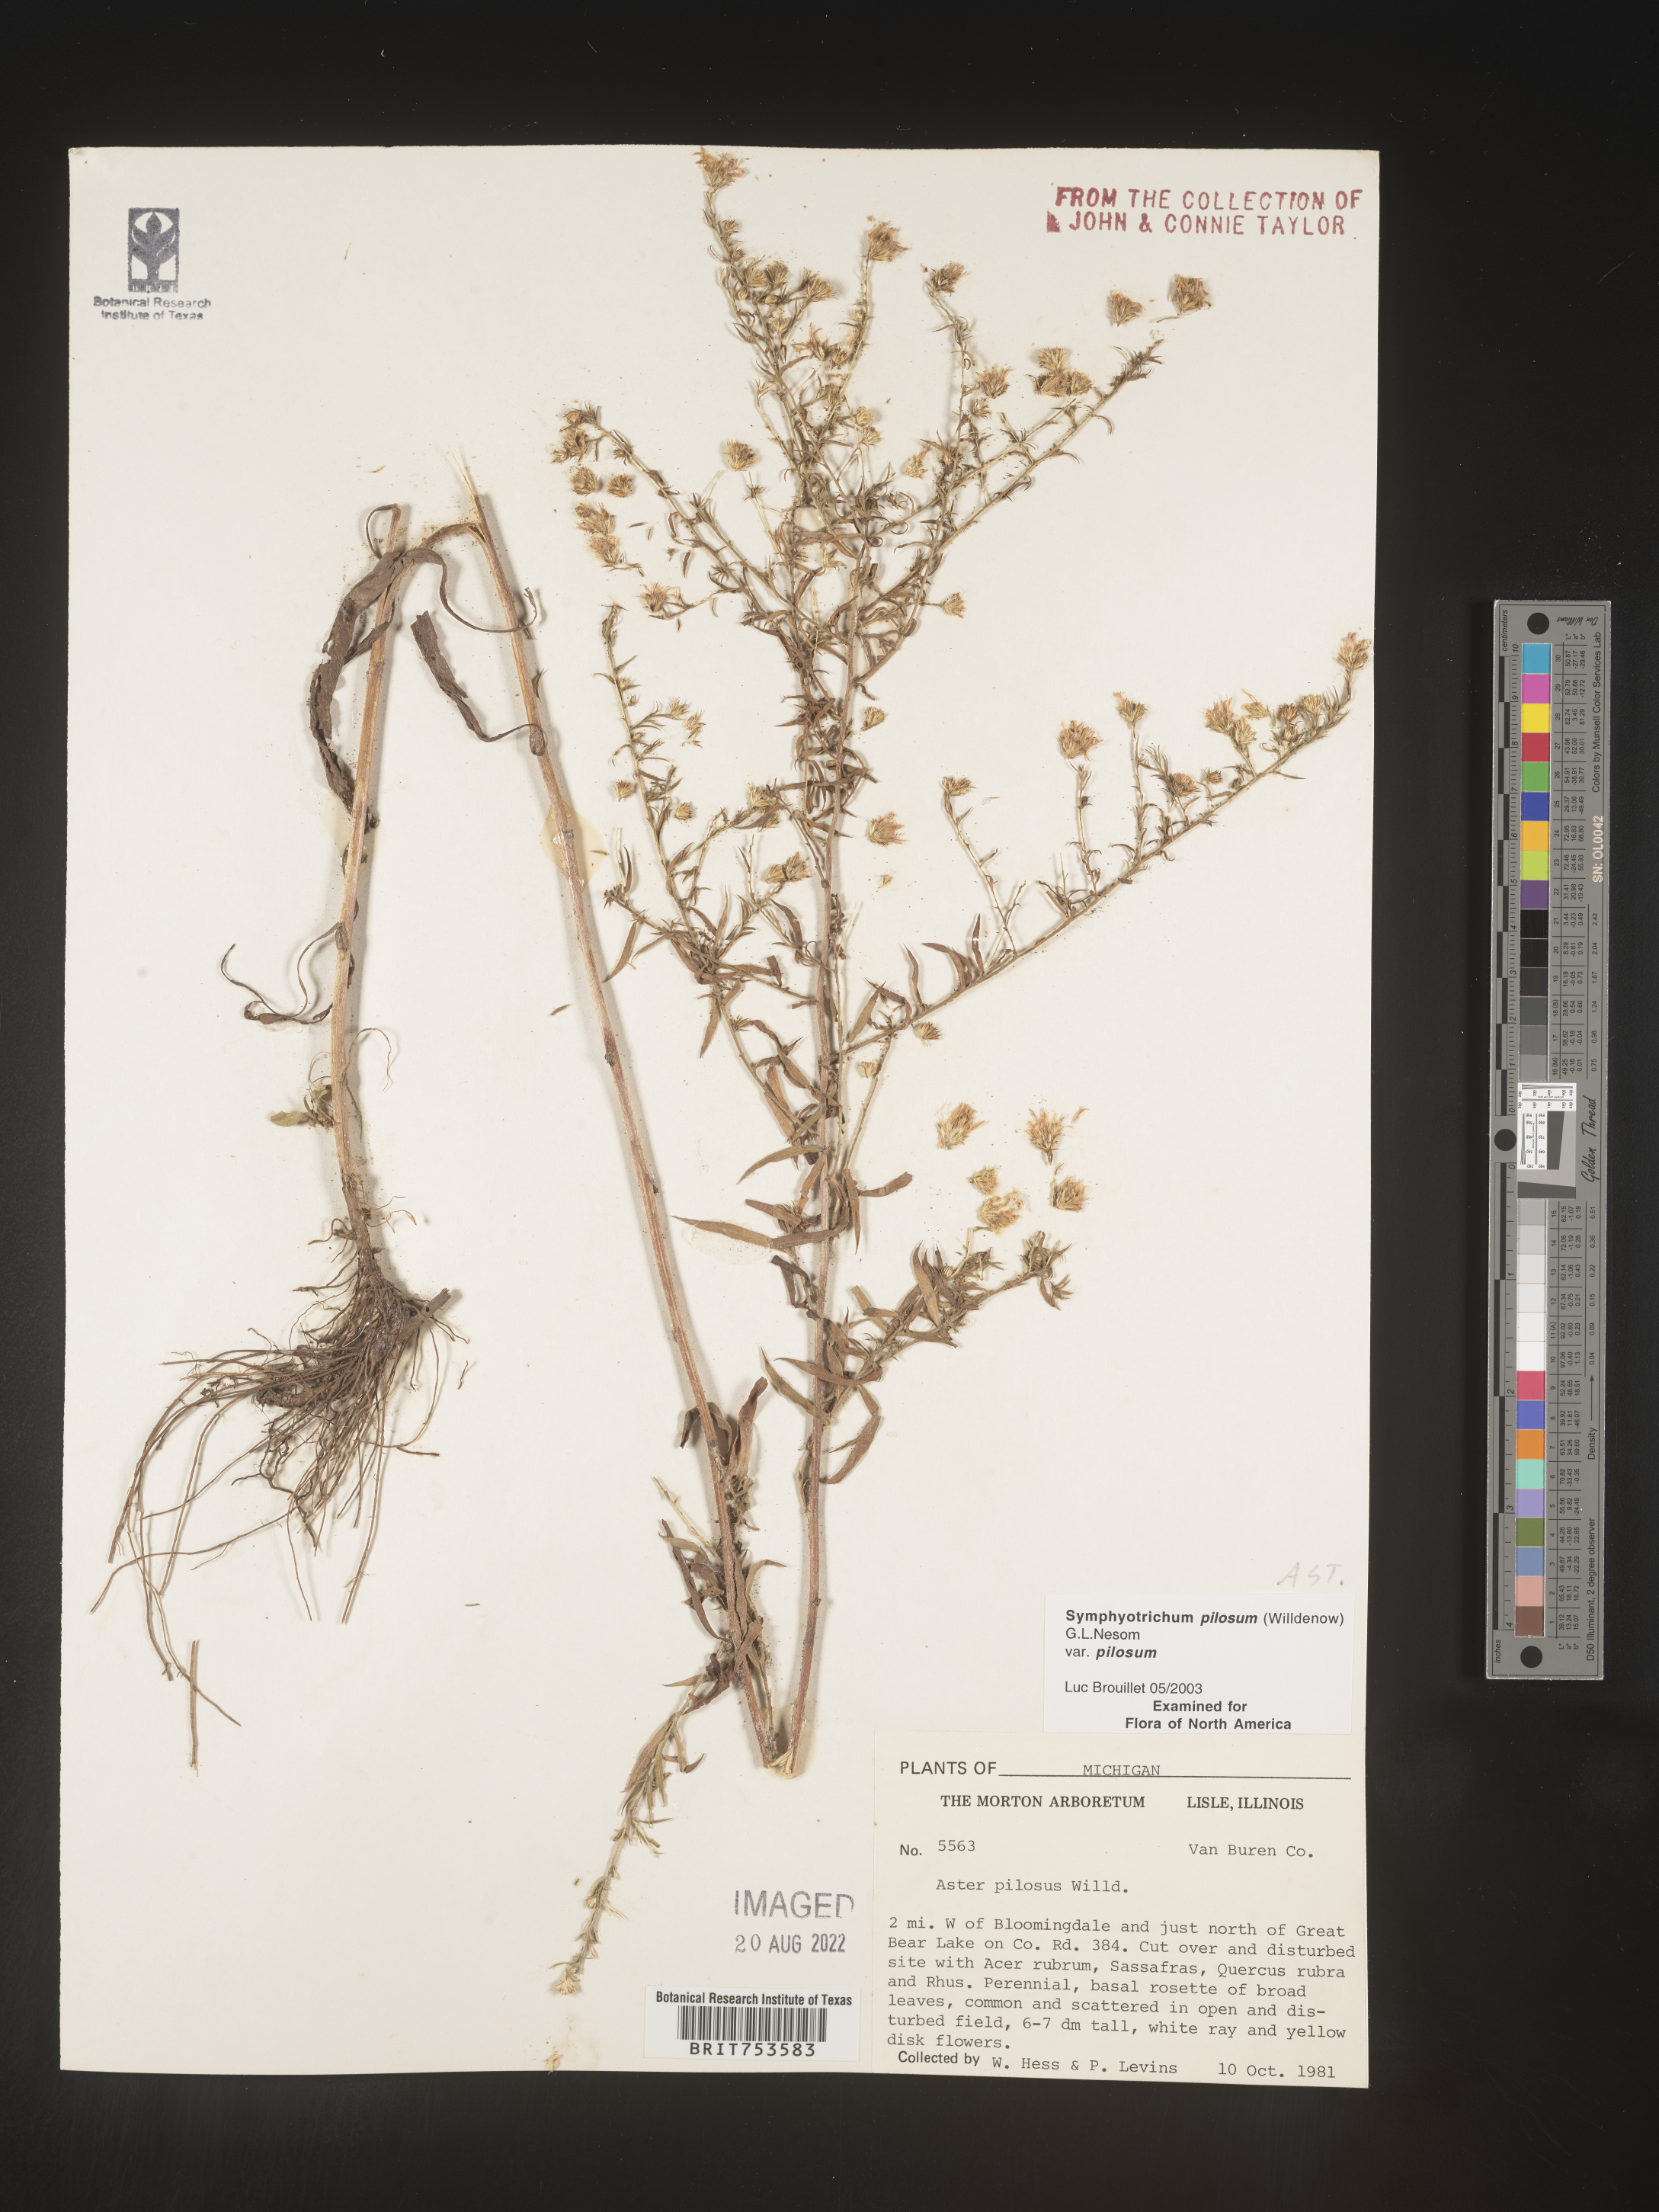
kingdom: Plantae
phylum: Tracheophyta
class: Magnoliopsida
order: Asterales
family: Asteraceae
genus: Symphyotrichum
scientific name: Symphyotrichum pilosum
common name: Awl aster
